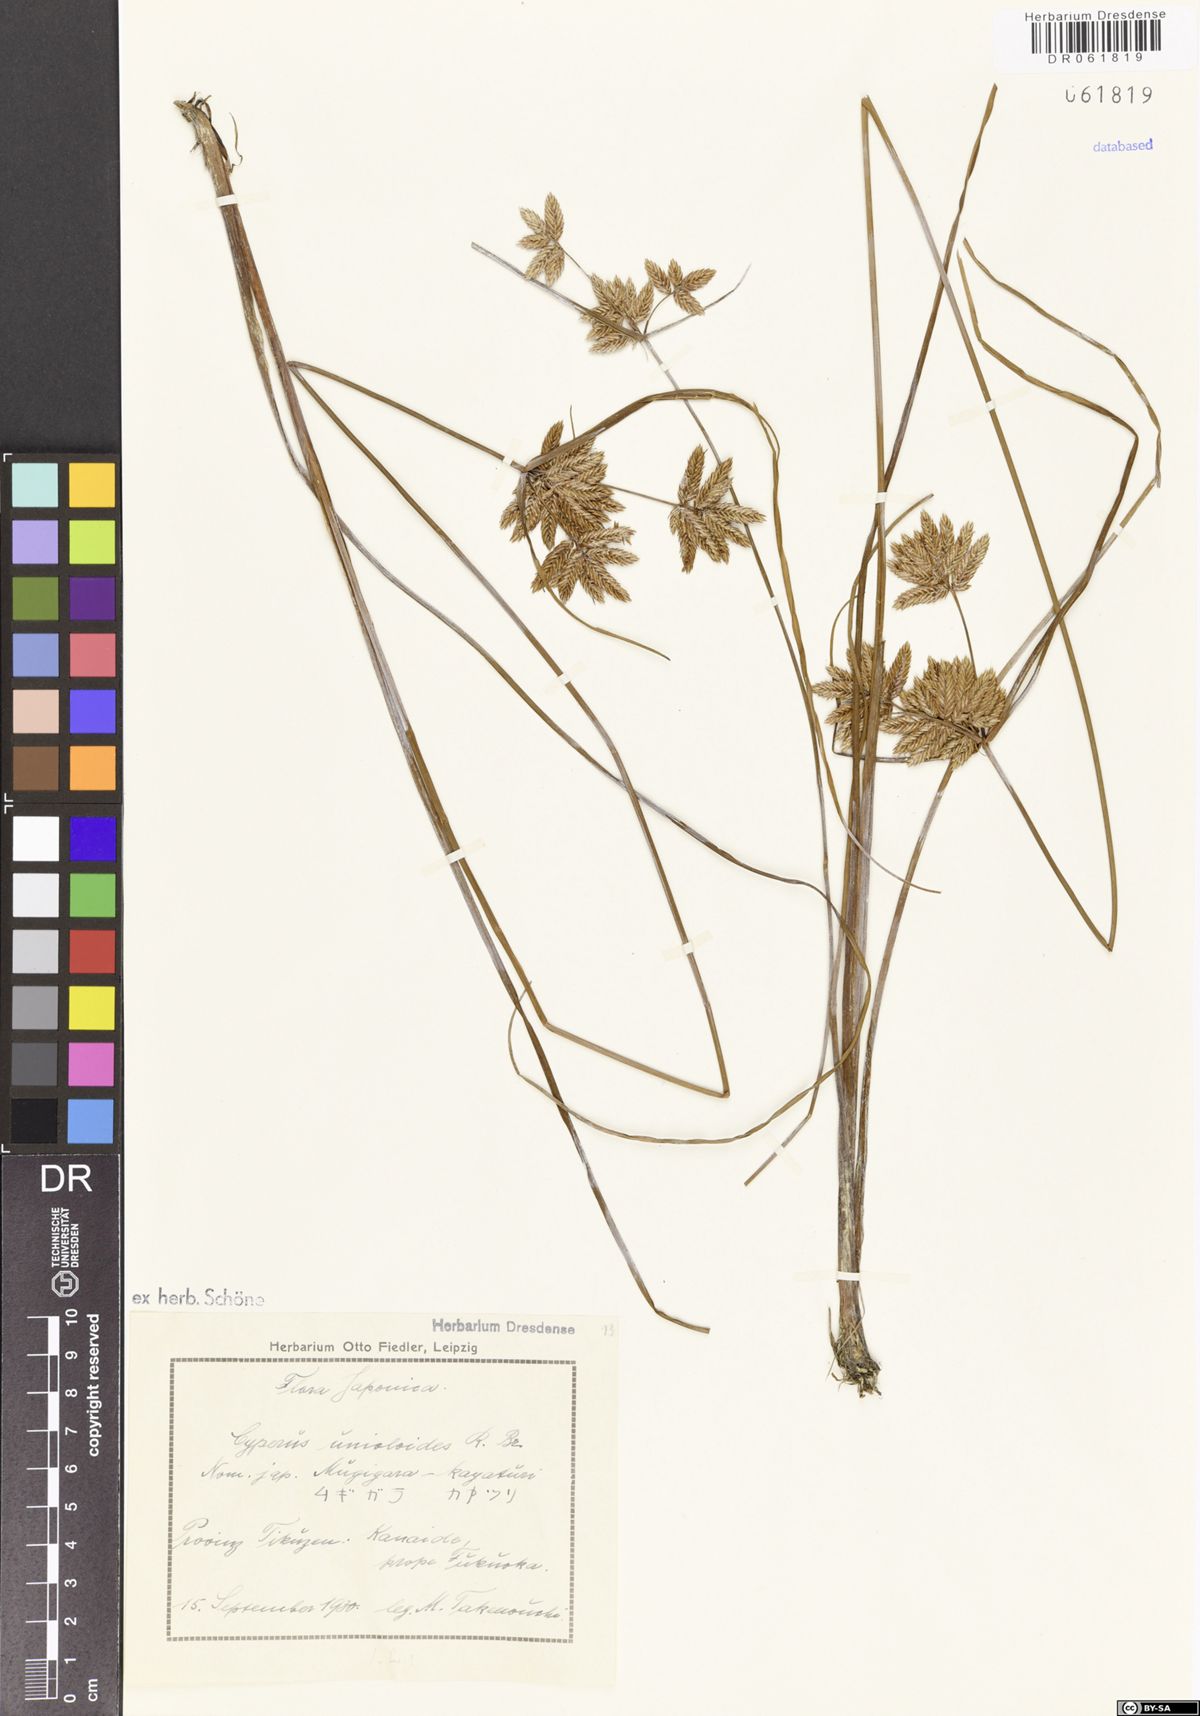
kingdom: Plantae
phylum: Tracheophyta
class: Liliopsida
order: Poales
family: Cyperaceae
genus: Cyperus
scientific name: Cyperus unioloides
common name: Uniola flatsedge
